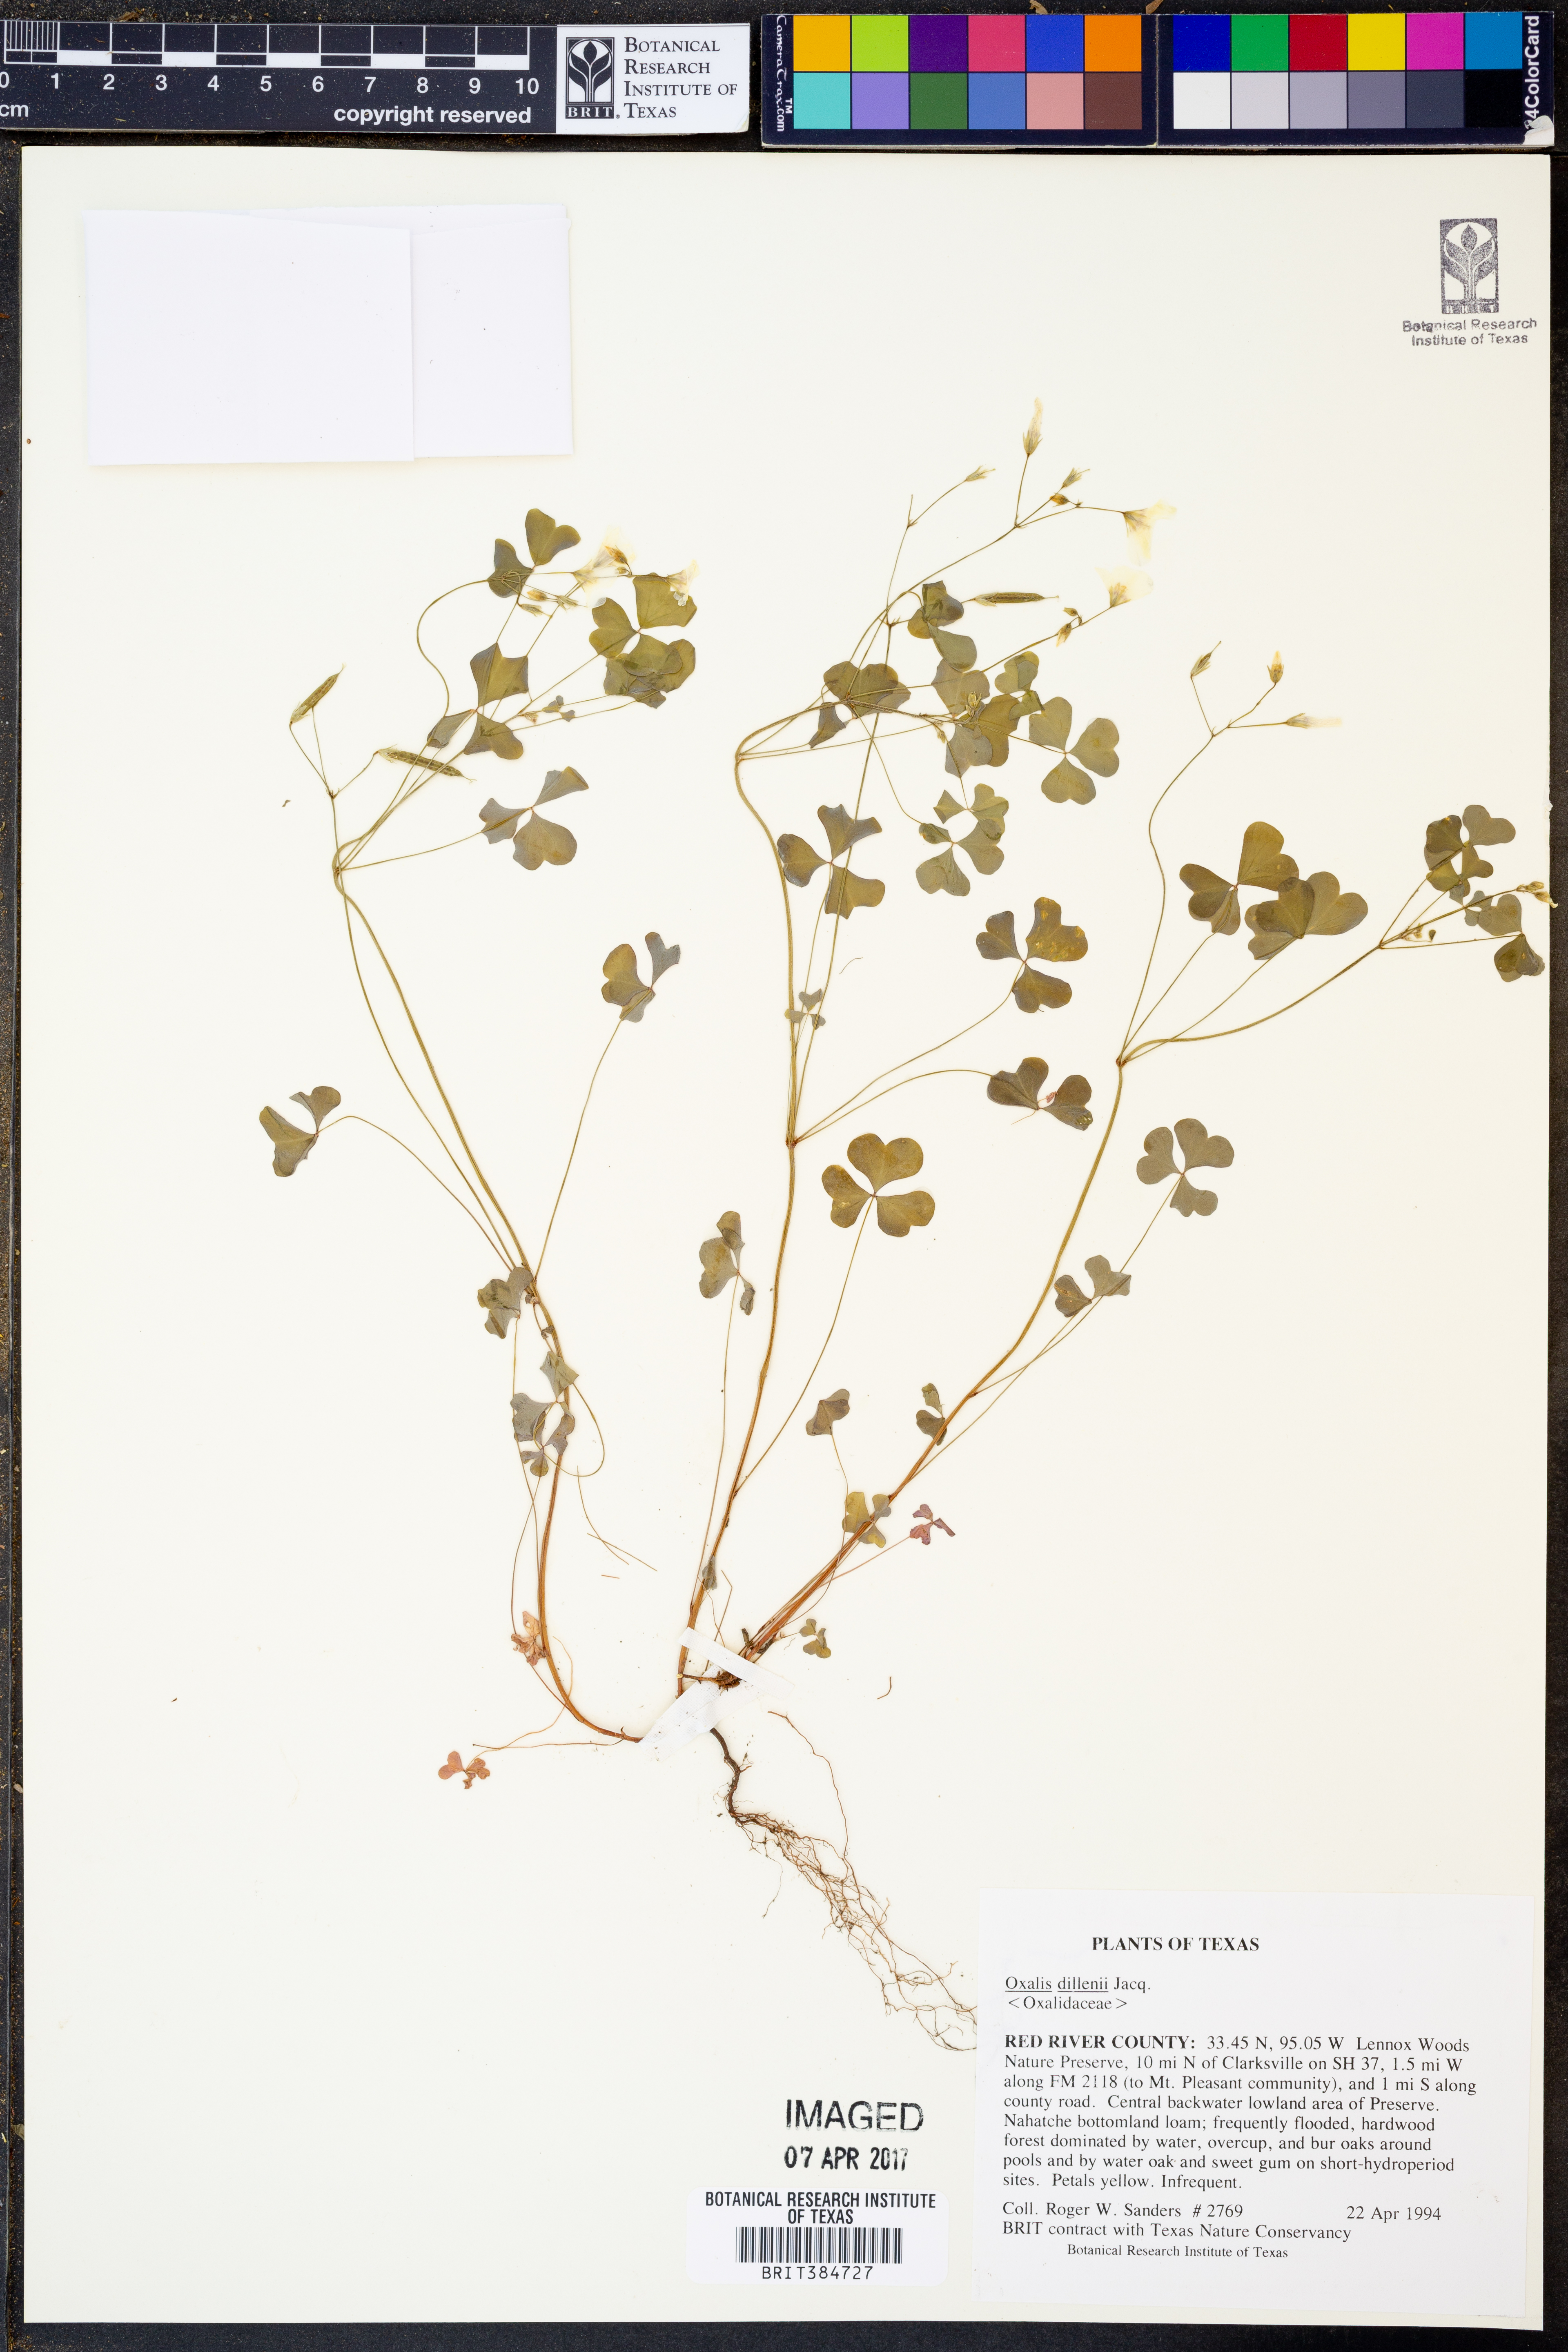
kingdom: Plantae
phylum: Tracheophyta
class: Magnoliopsida
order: Oxalidales
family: Oxalidaceae
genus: Oxalis
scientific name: Oxalis dillenii
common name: Sussex yellow-sorrel
